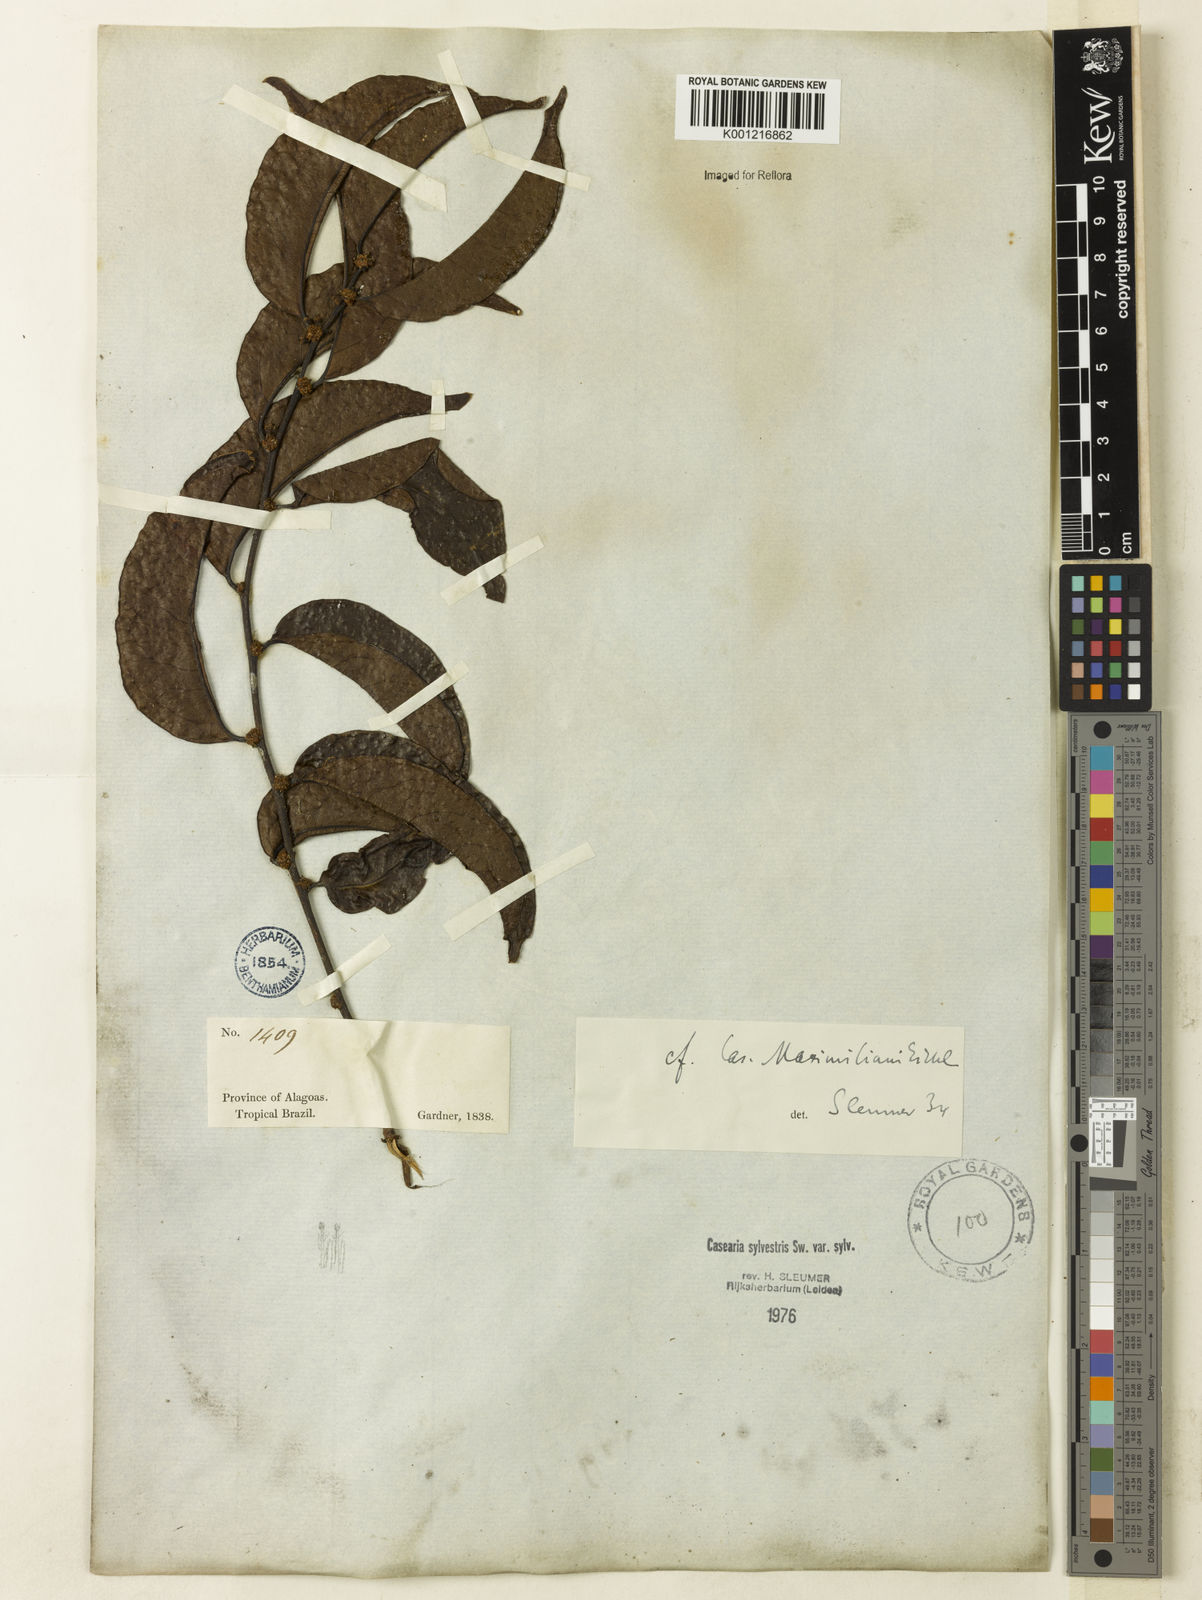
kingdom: Plantae
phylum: Tracheophyta
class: Magnoliopsida
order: Malpighiales
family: Salicaceae
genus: Casearia
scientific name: Casearia sylvestris
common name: Wild sage
